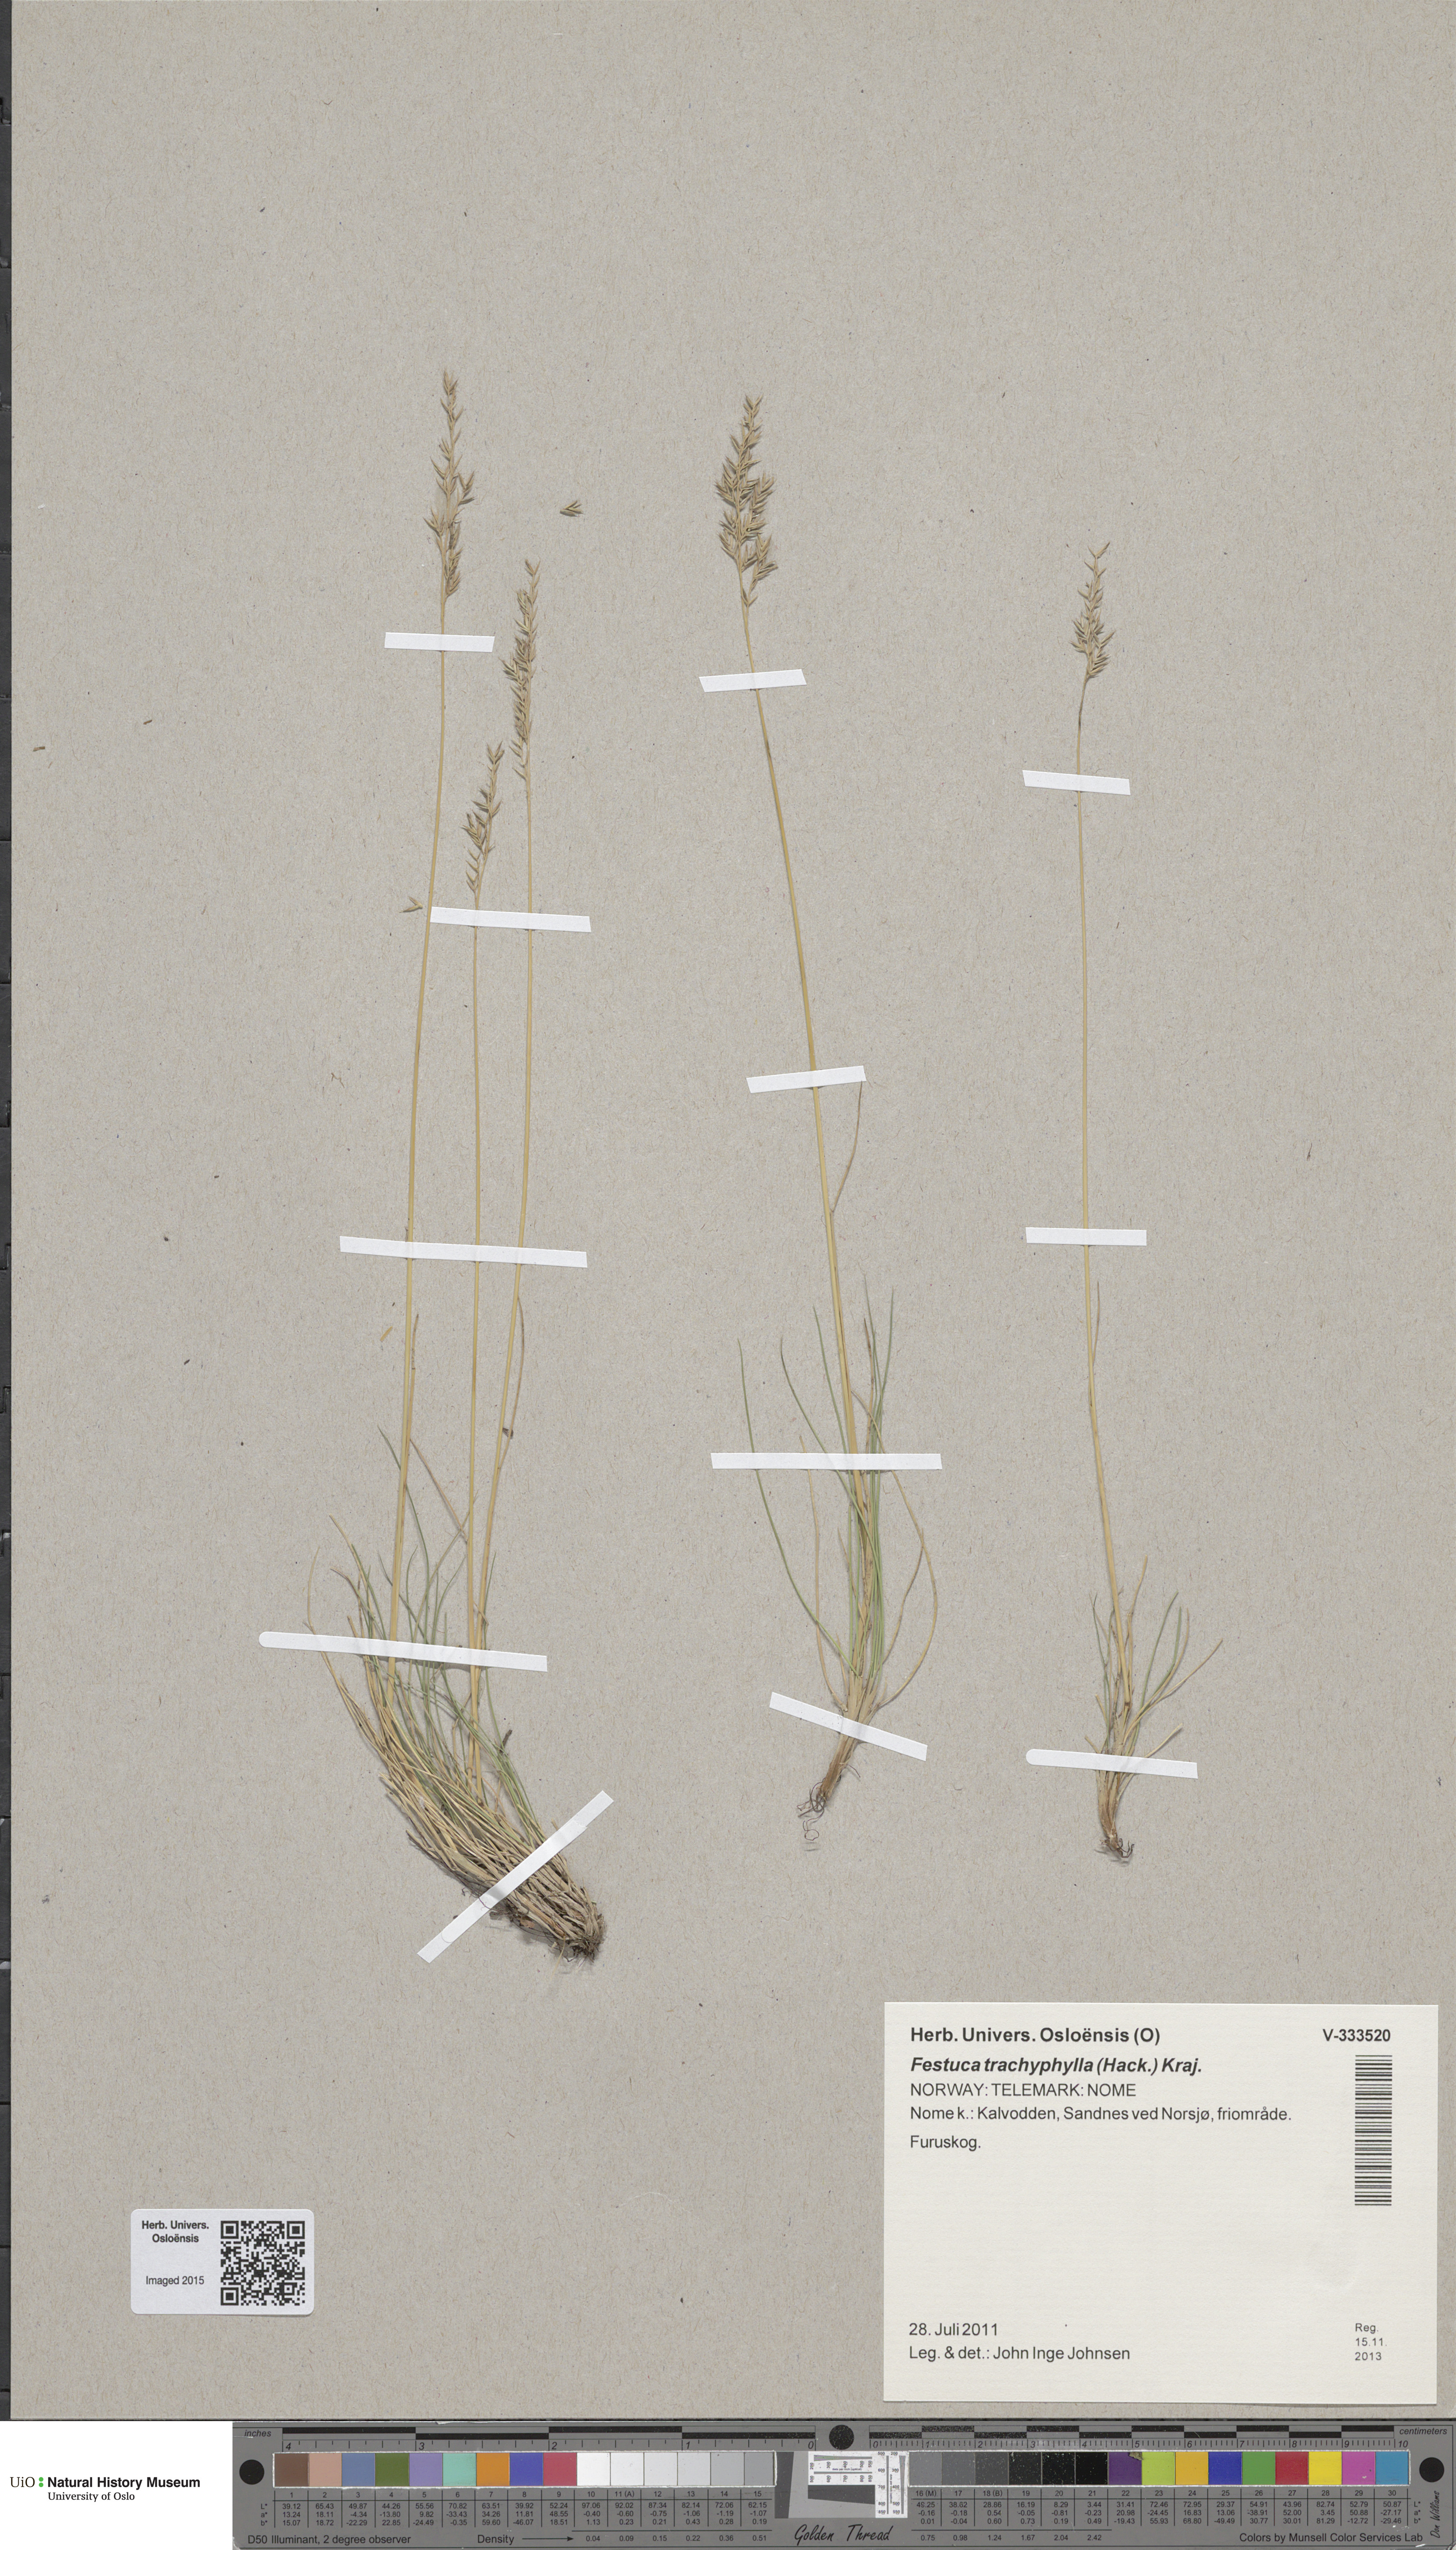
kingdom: Plantae
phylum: Tracheophyta
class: Liliopsida
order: Poales
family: Poaceae
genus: Festuca
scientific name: Festuca ovina
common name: Sheep fescue
